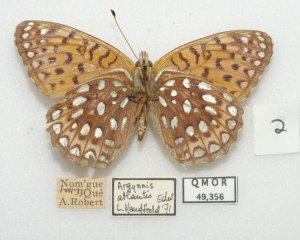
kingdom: Animalia
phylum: Arthropoda
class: Insecta
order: Lepidoptera
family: Nymphalidae
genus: Speyeria
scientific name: Speyeria atlantis
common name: Atlantis Fritillary
